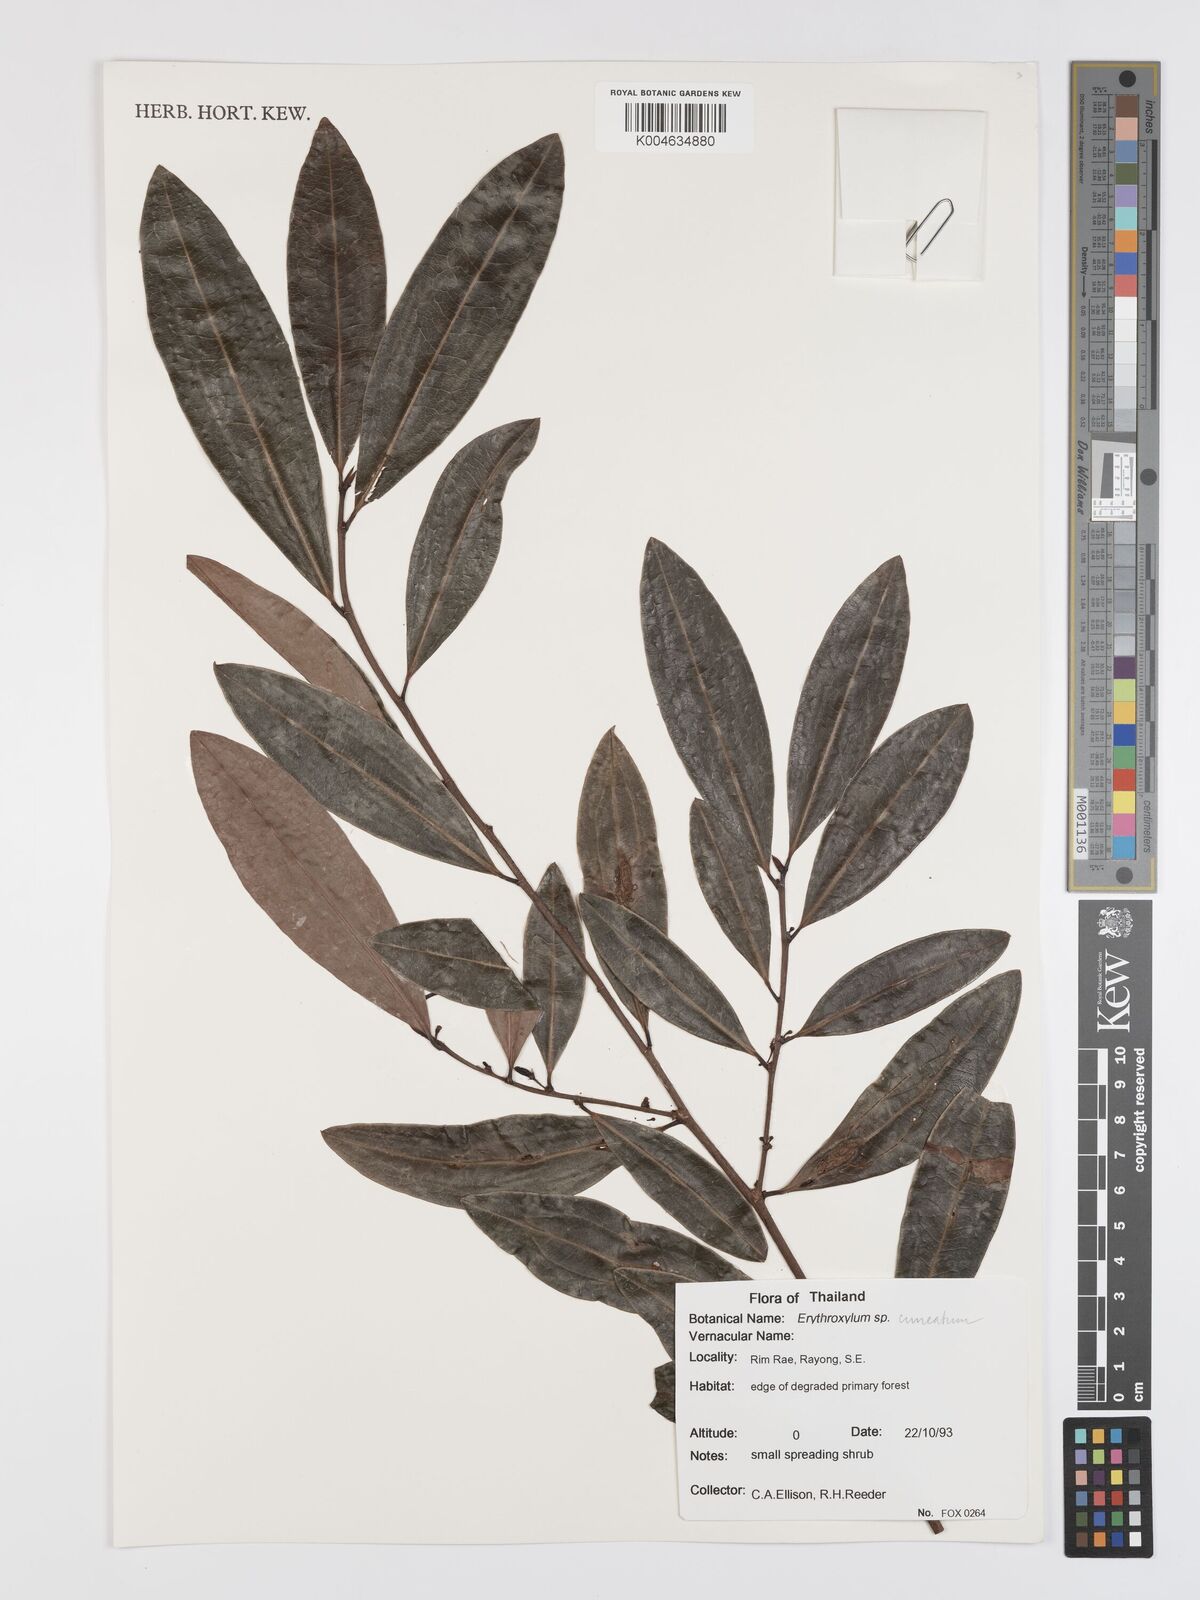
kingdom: Plantae
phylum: Tracheophyta
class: Magnoliopsida
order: Malpighiales
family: Erythroxylaceae
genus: Erythroxylum
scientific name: Erythroxylum
